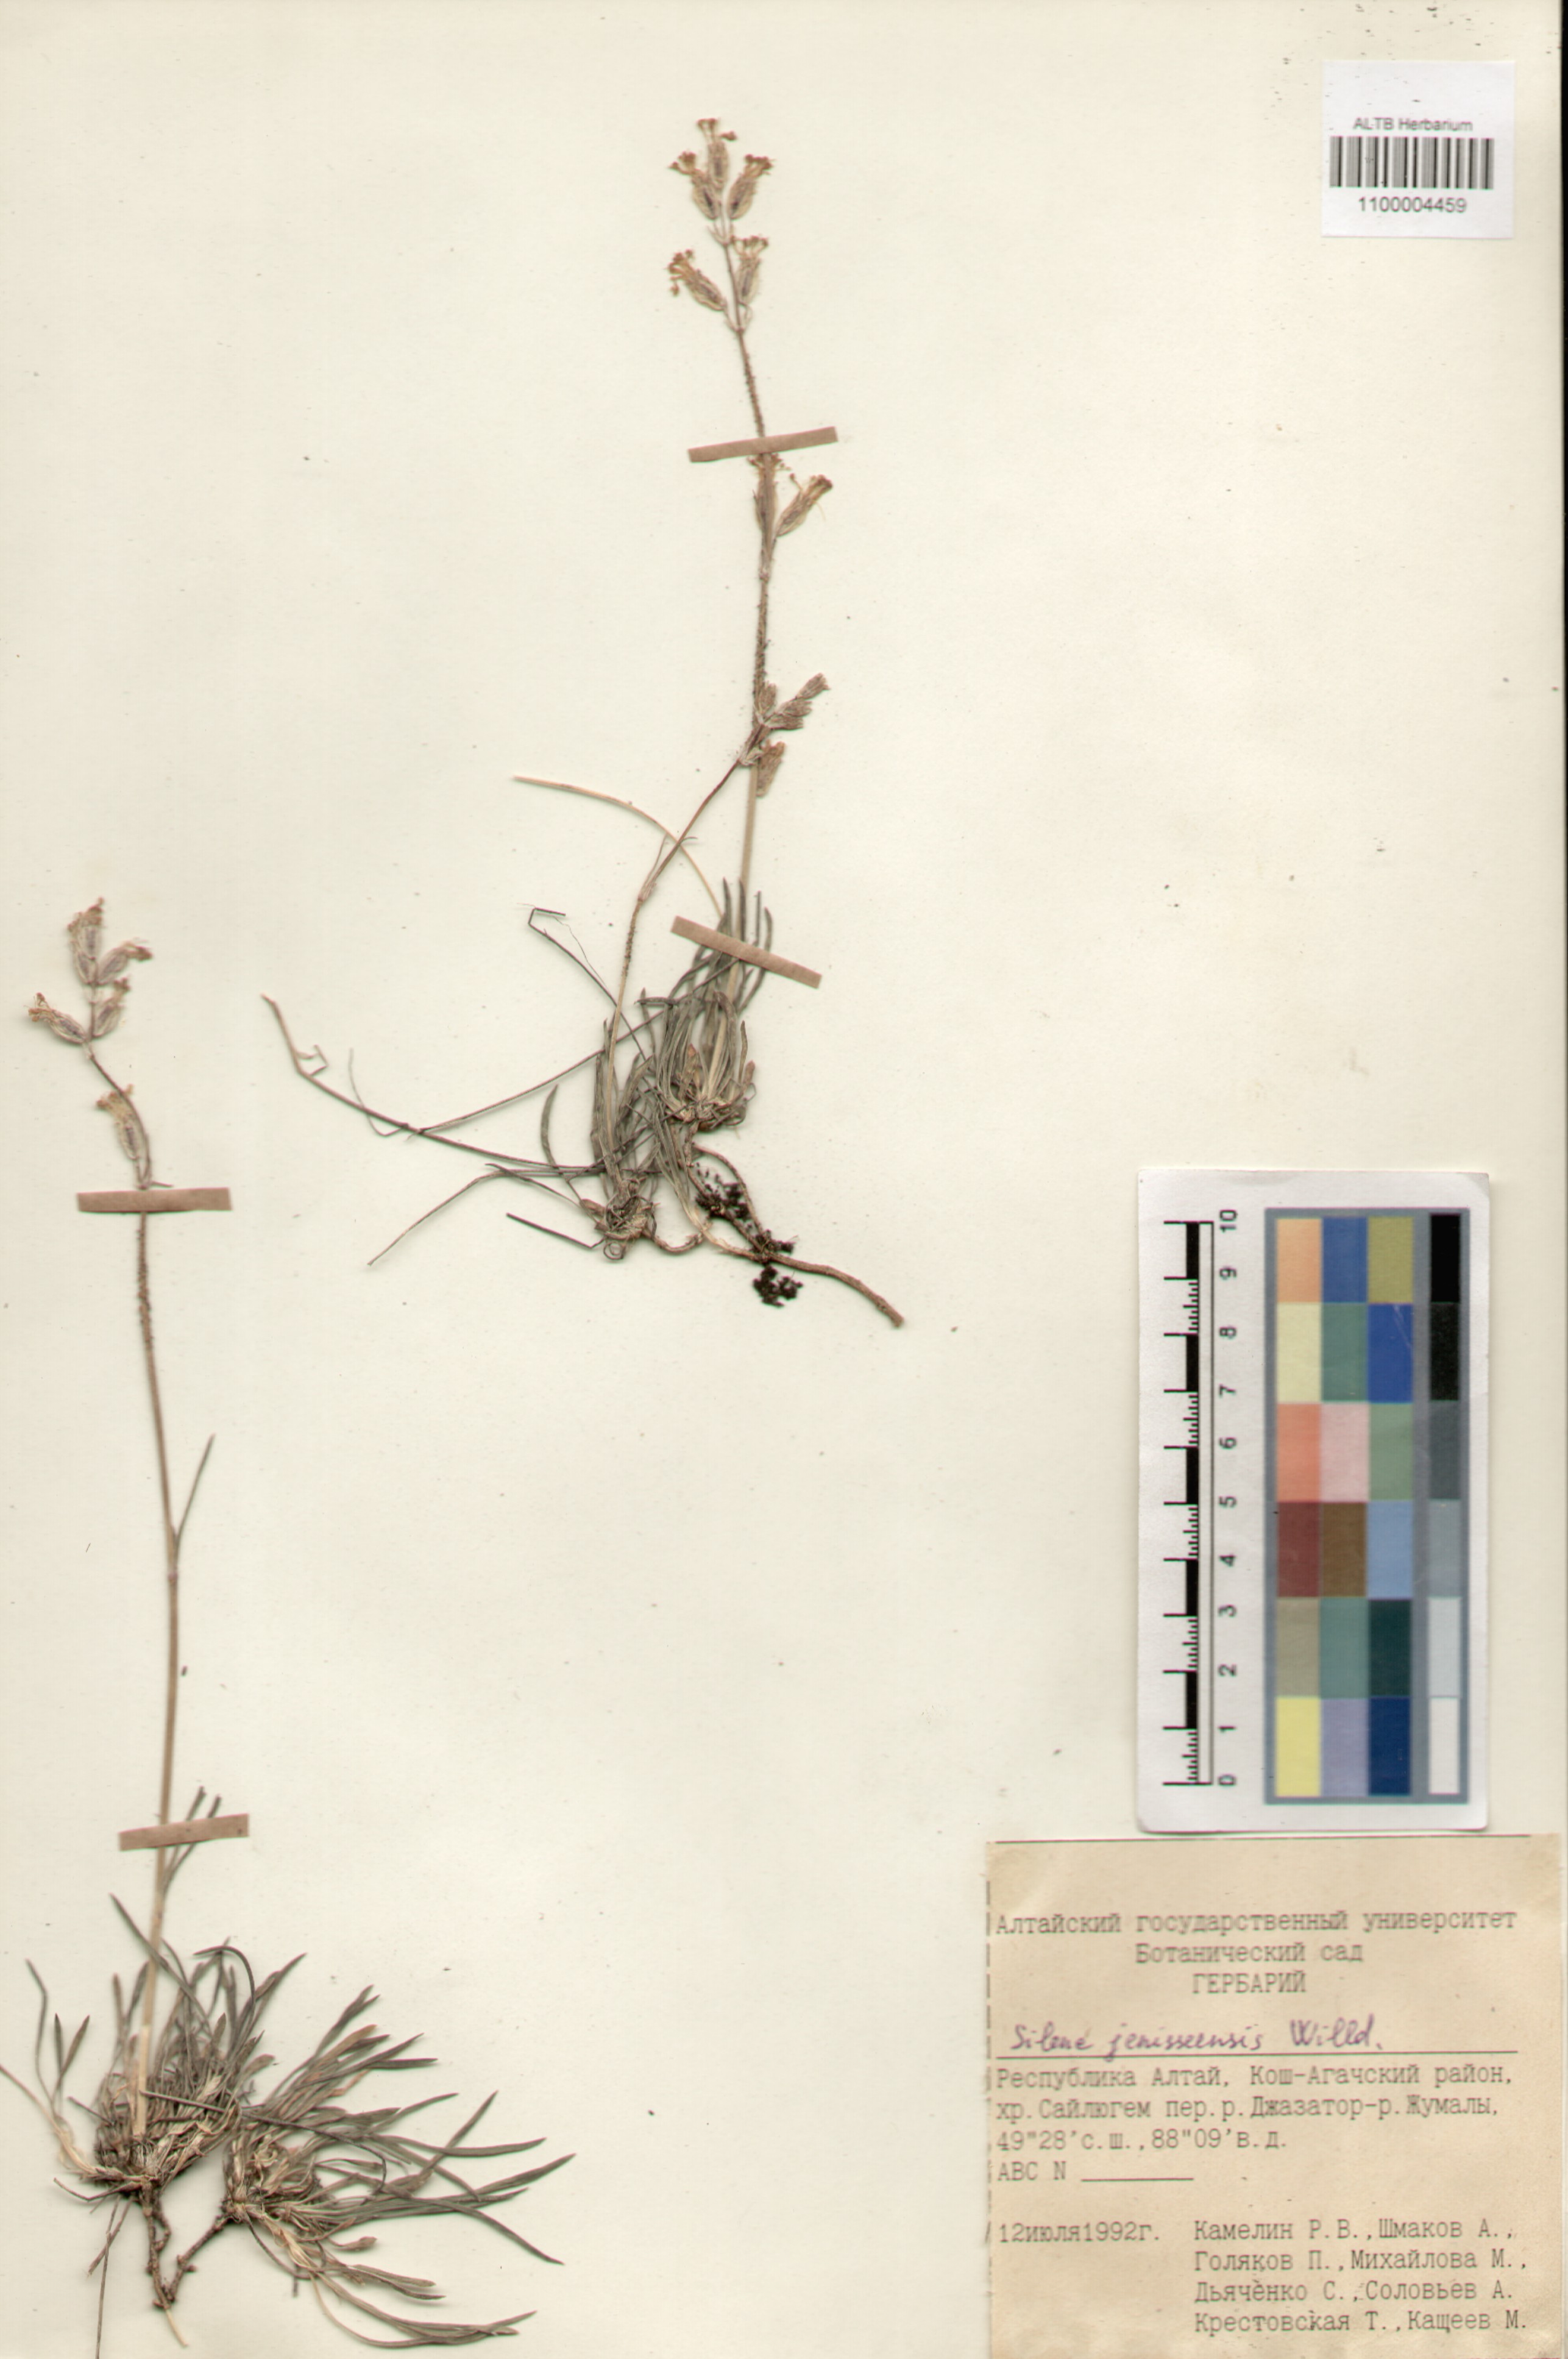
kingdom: Plantae
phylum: Tracheophyta
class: Magnoliopsida
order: Caryophyllales
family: Caryophyllaceae
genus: Silene
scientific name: Silene jeniseensis
